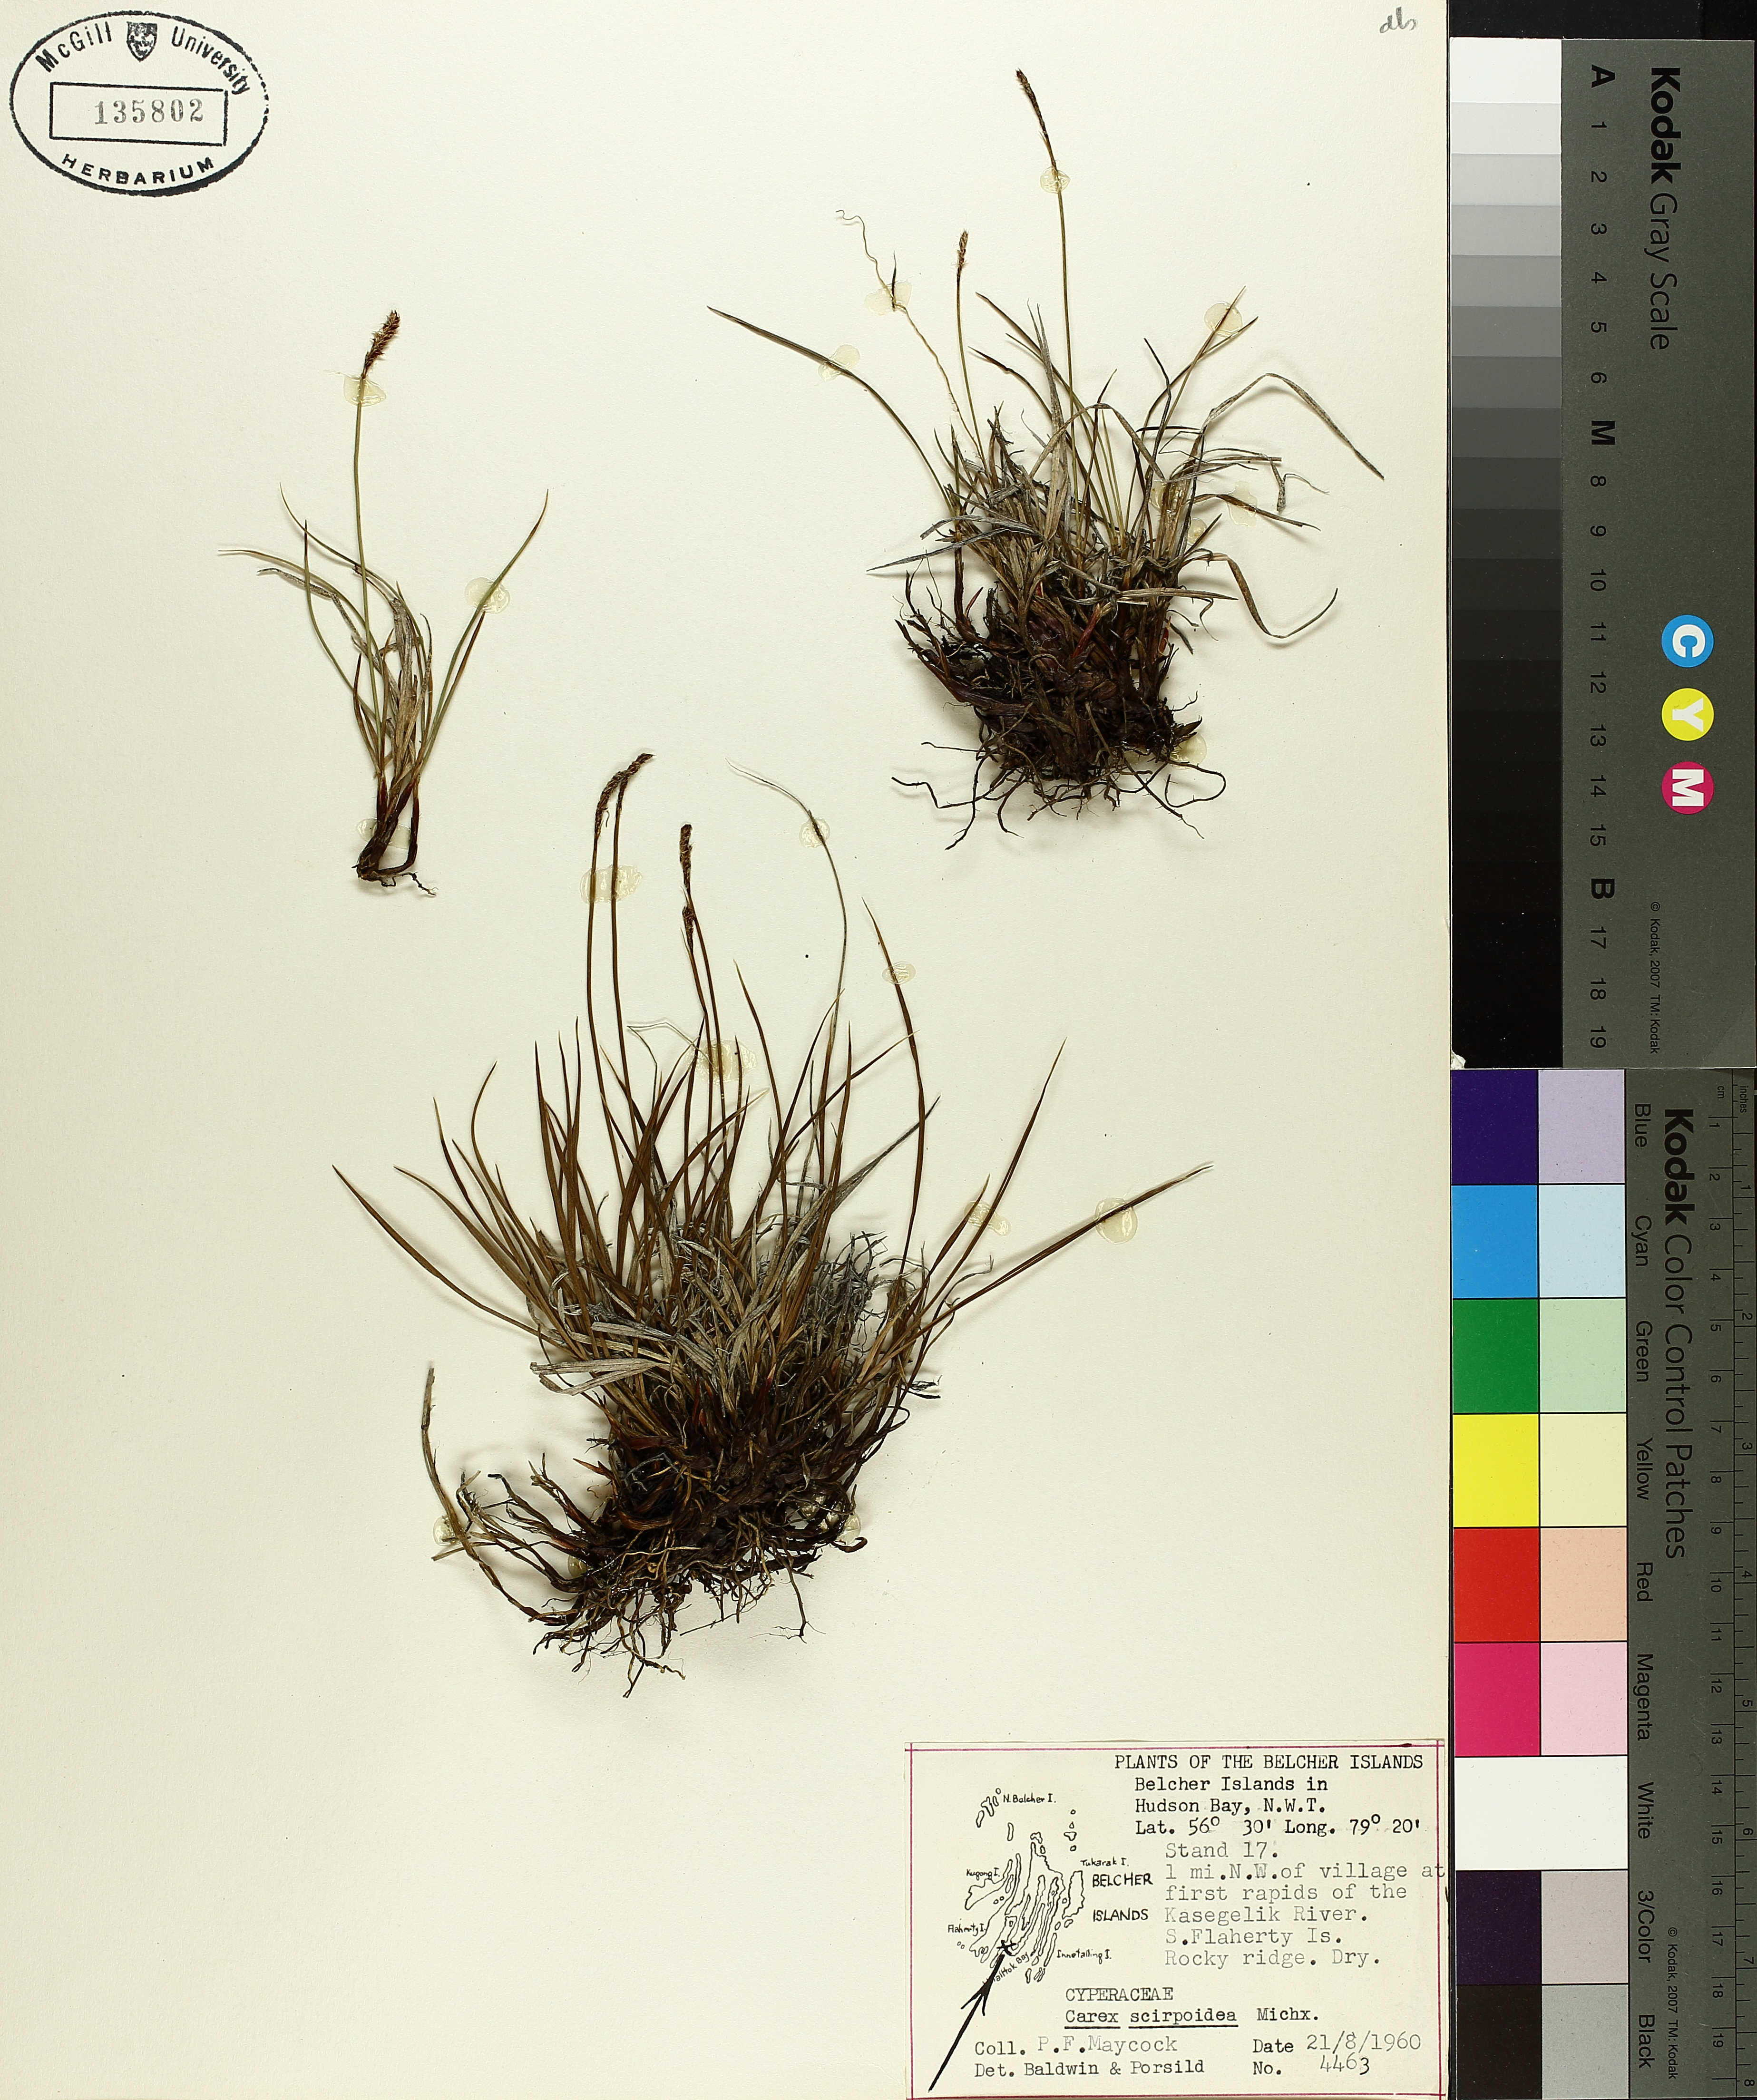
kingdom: Plantae
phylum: Tracheophyta
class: Liliopsida
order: Poales
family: Cyperaceae
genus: Carex
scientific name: Carex scirpoidea
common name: Canada single-spike sedge
